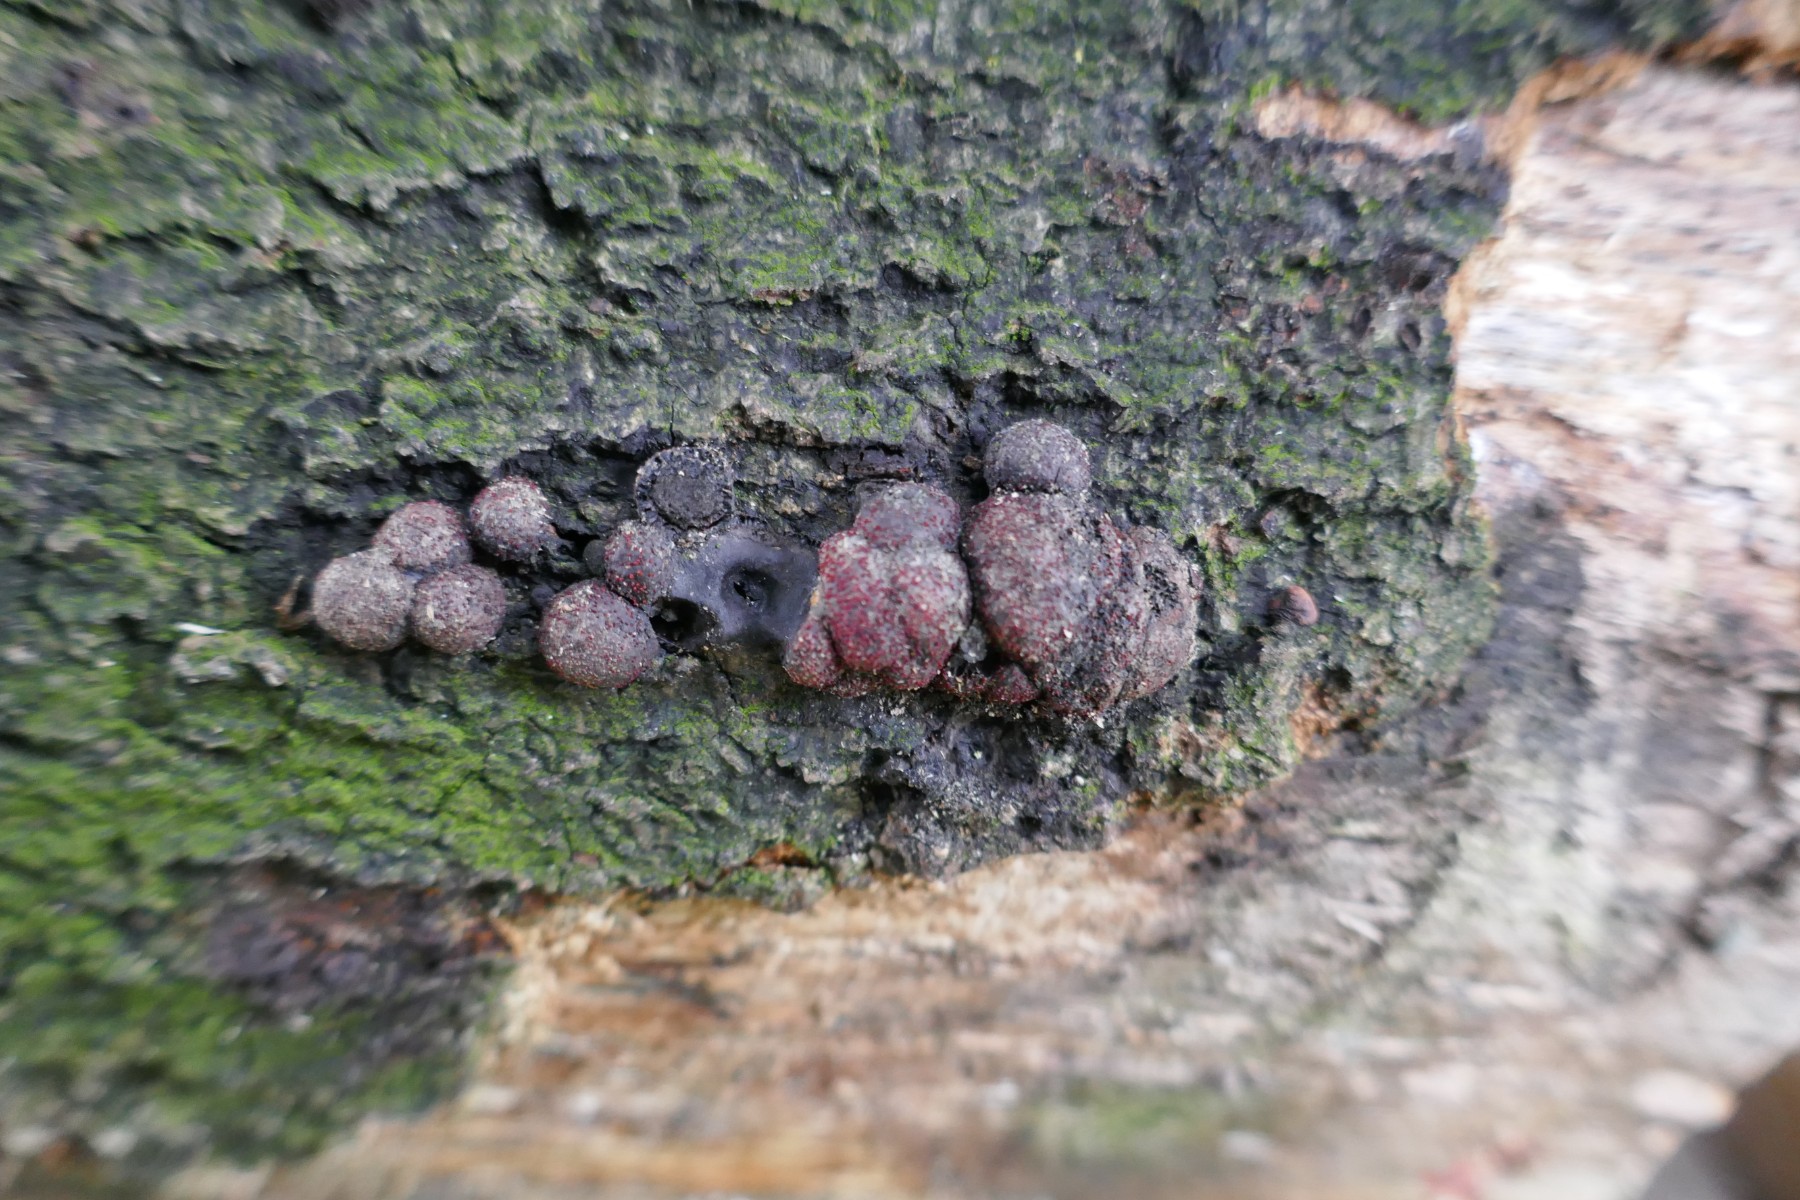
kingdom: Fungi
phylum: Ascomycota
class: Sordariomycetes
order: Xylariales
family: Hypoxylaceae
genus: Hypoxylon
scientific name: Hypoxylon fragiforme
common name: kuljordbær
